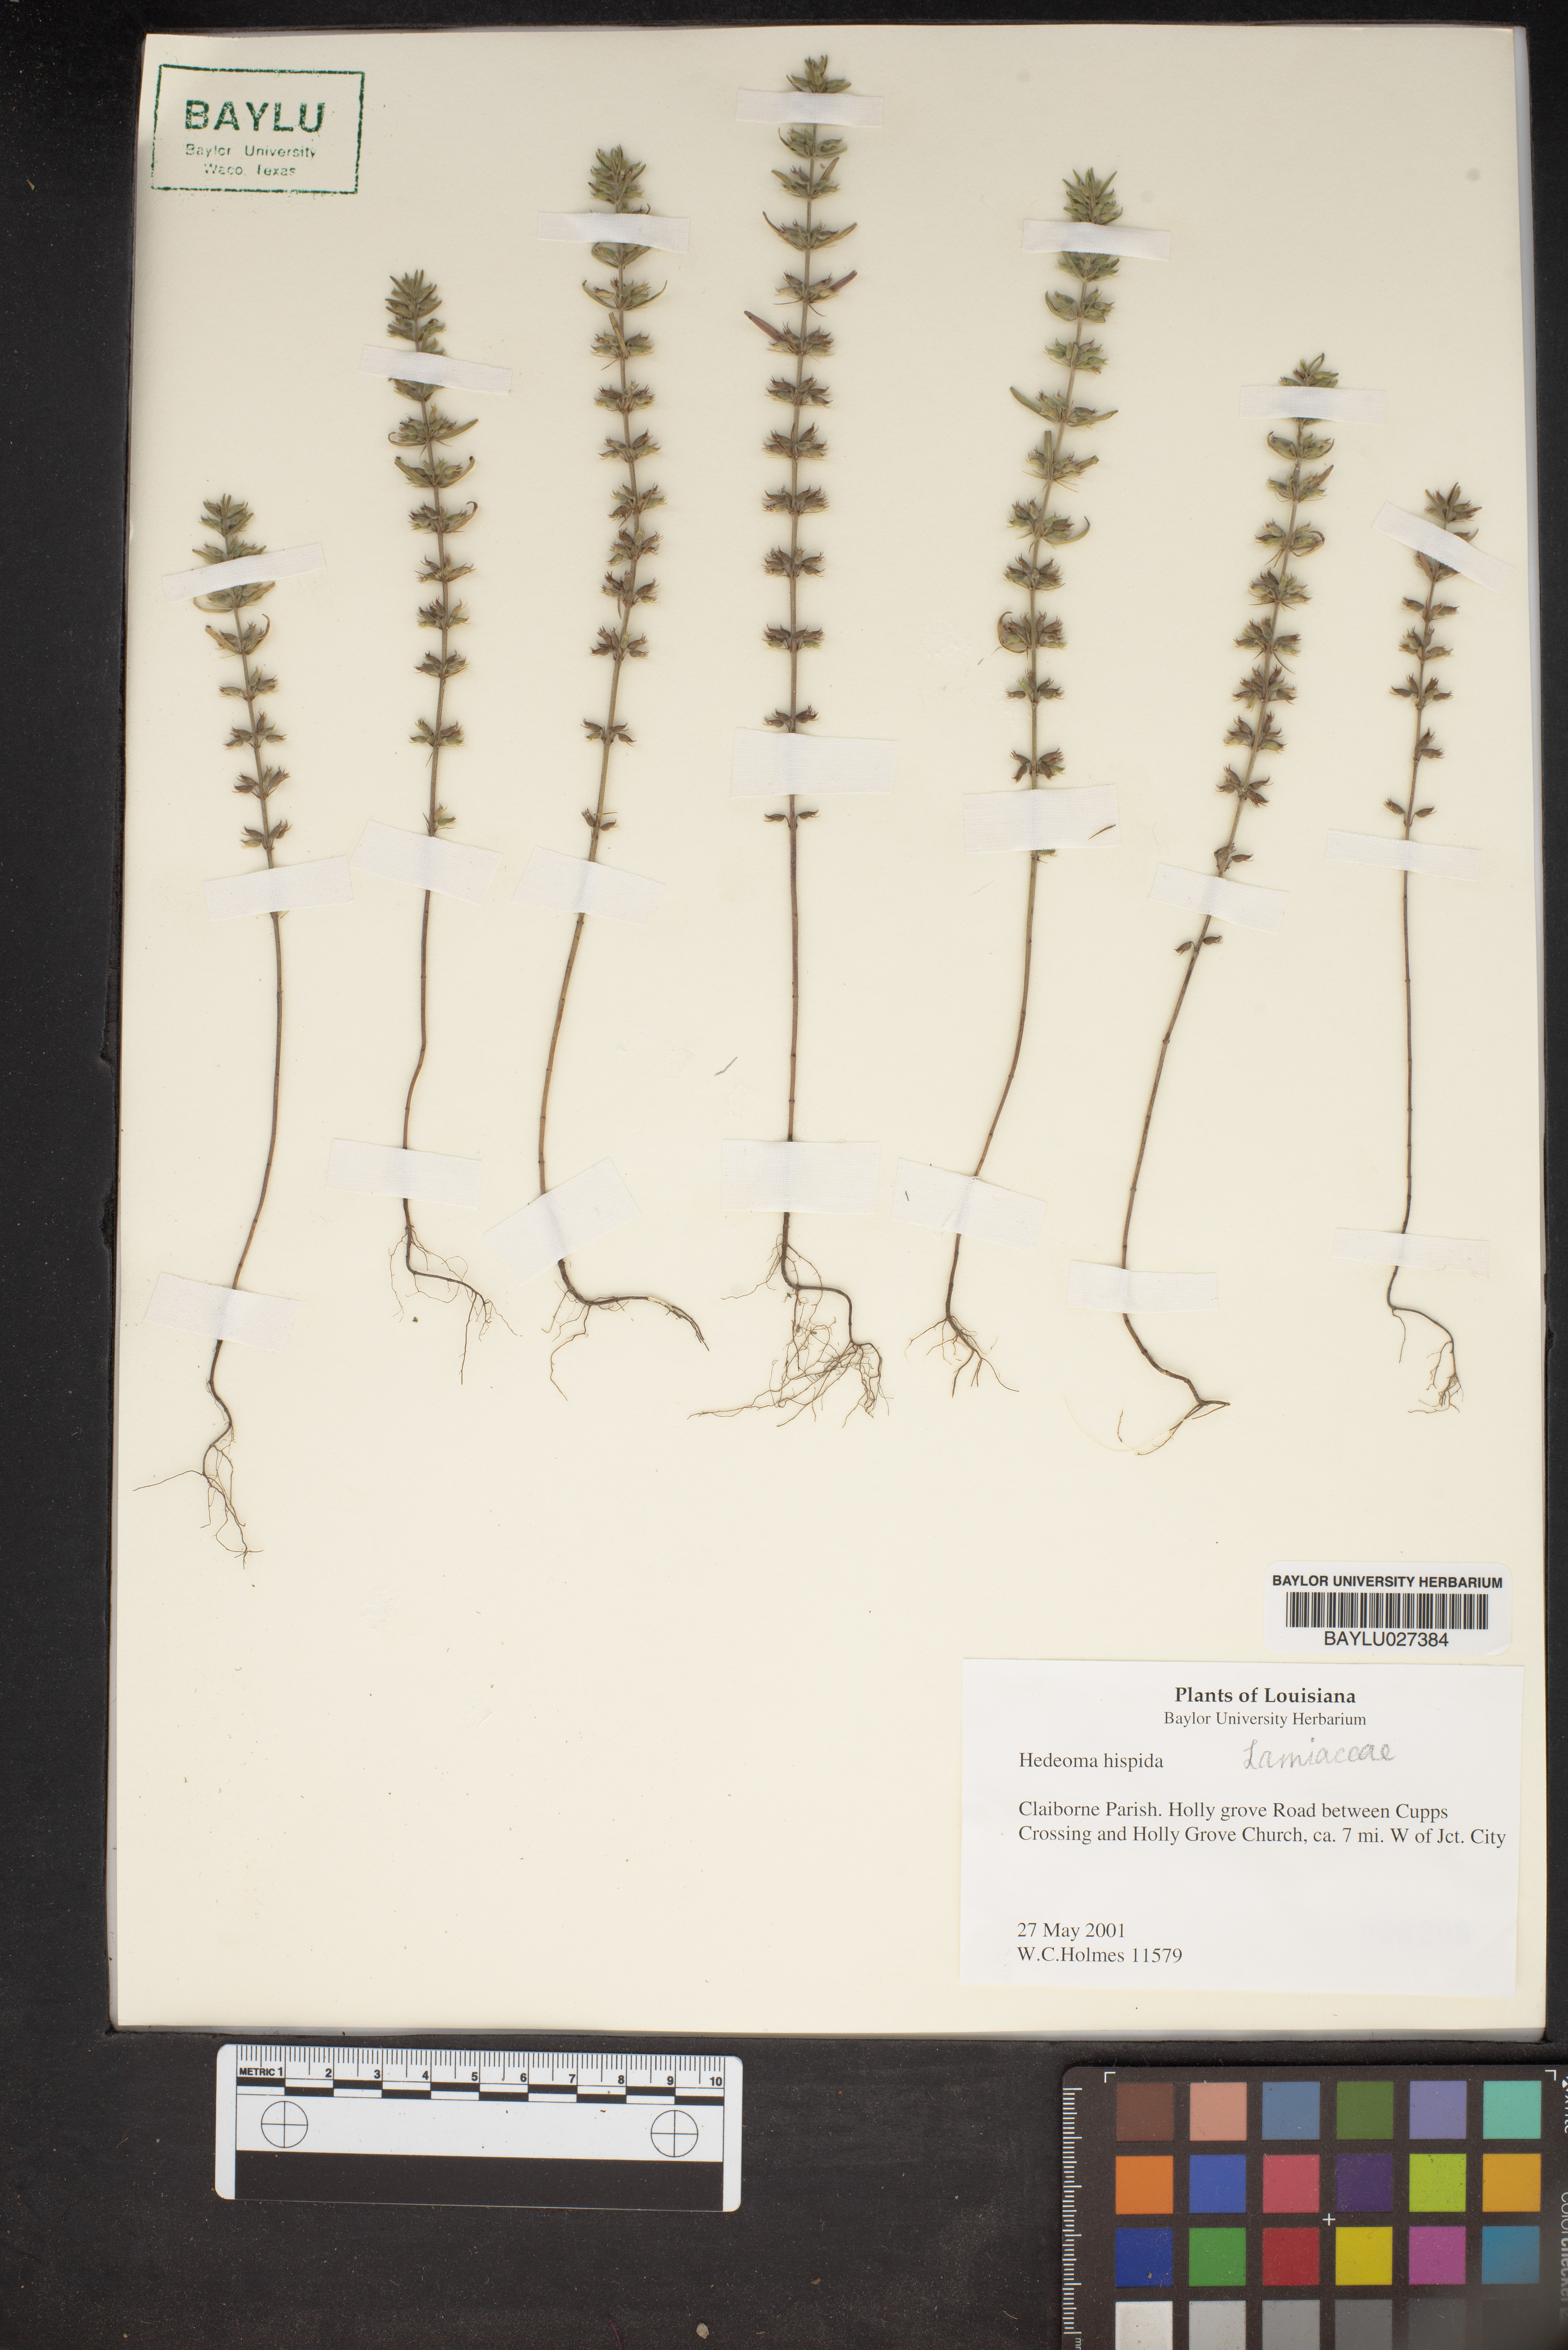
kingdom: Plantae
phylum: Tracheophyta
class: Magnoliopsida
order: Lamiales
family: Lamiaceae
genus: Hedeoma
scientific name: Hedeoma hispida
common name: Mock pennyroyal
